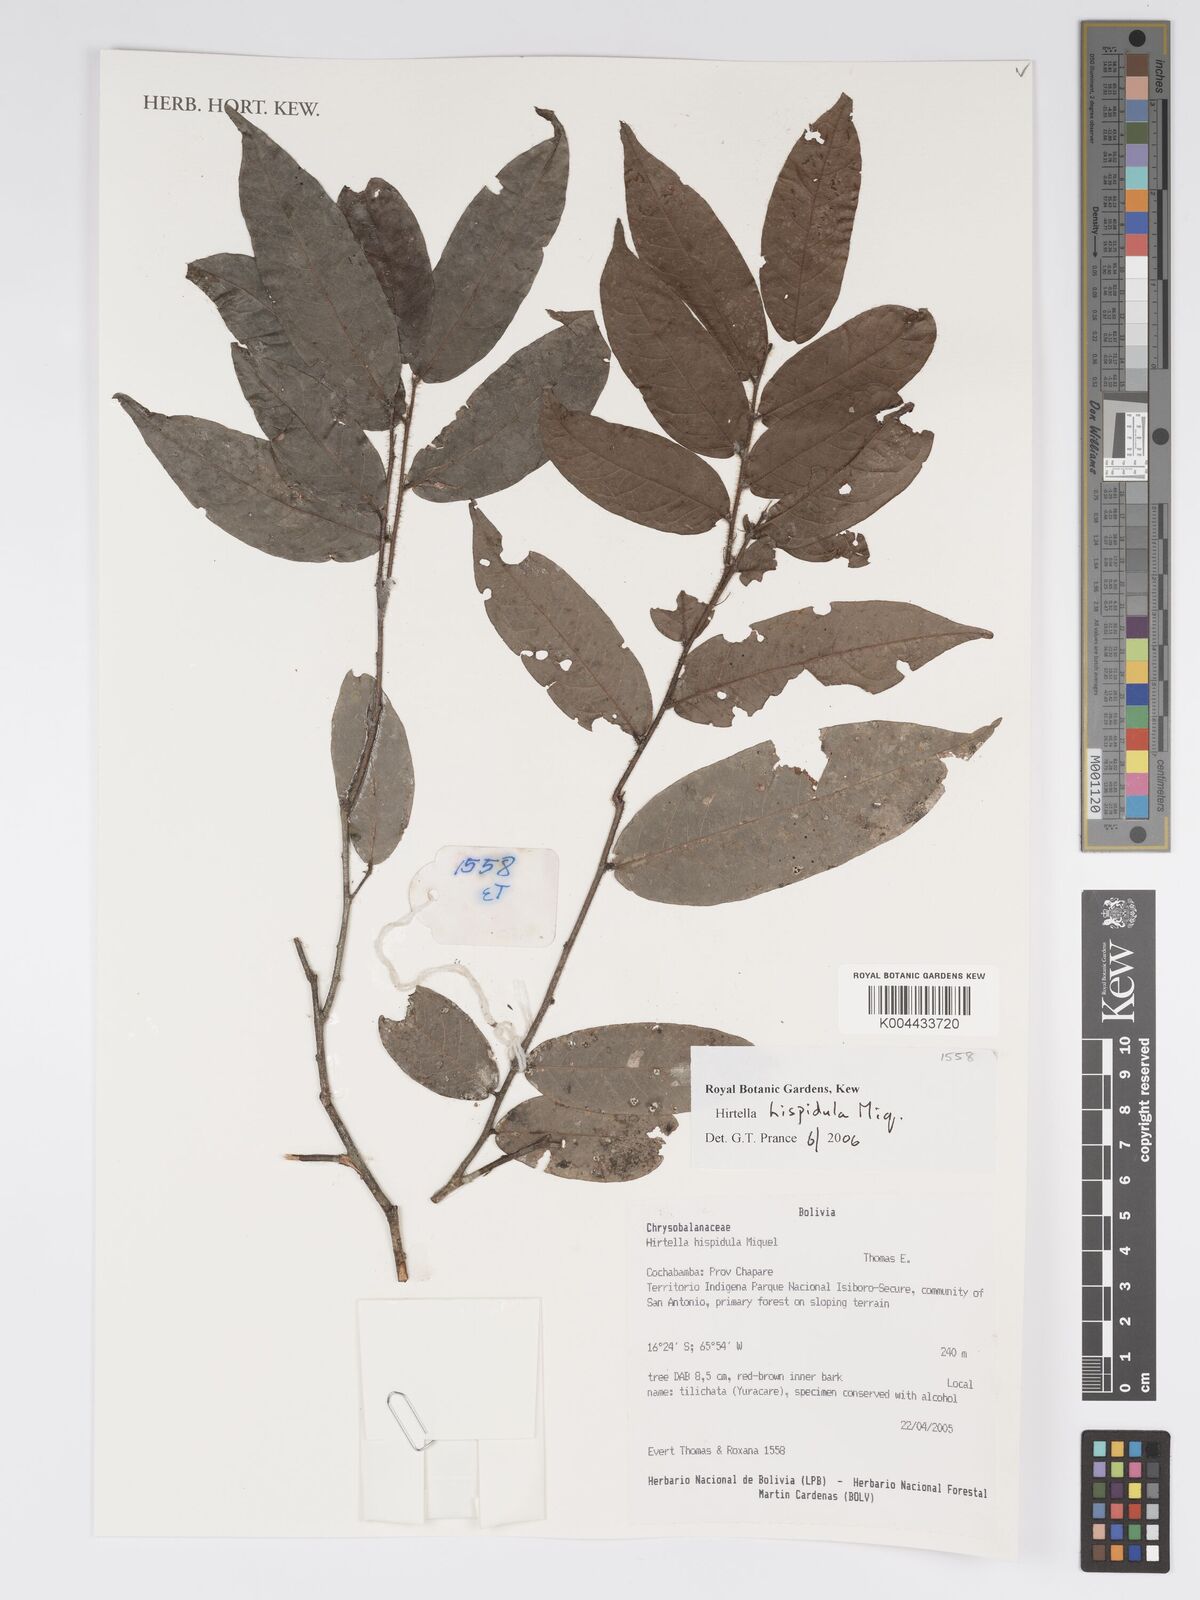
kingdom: Plantae
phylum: Tracheophyta
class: Magnoliopsida
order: Malpighiales
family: Chrysobalanaceae
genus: Hirtella
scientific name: Hirtella hispidula
